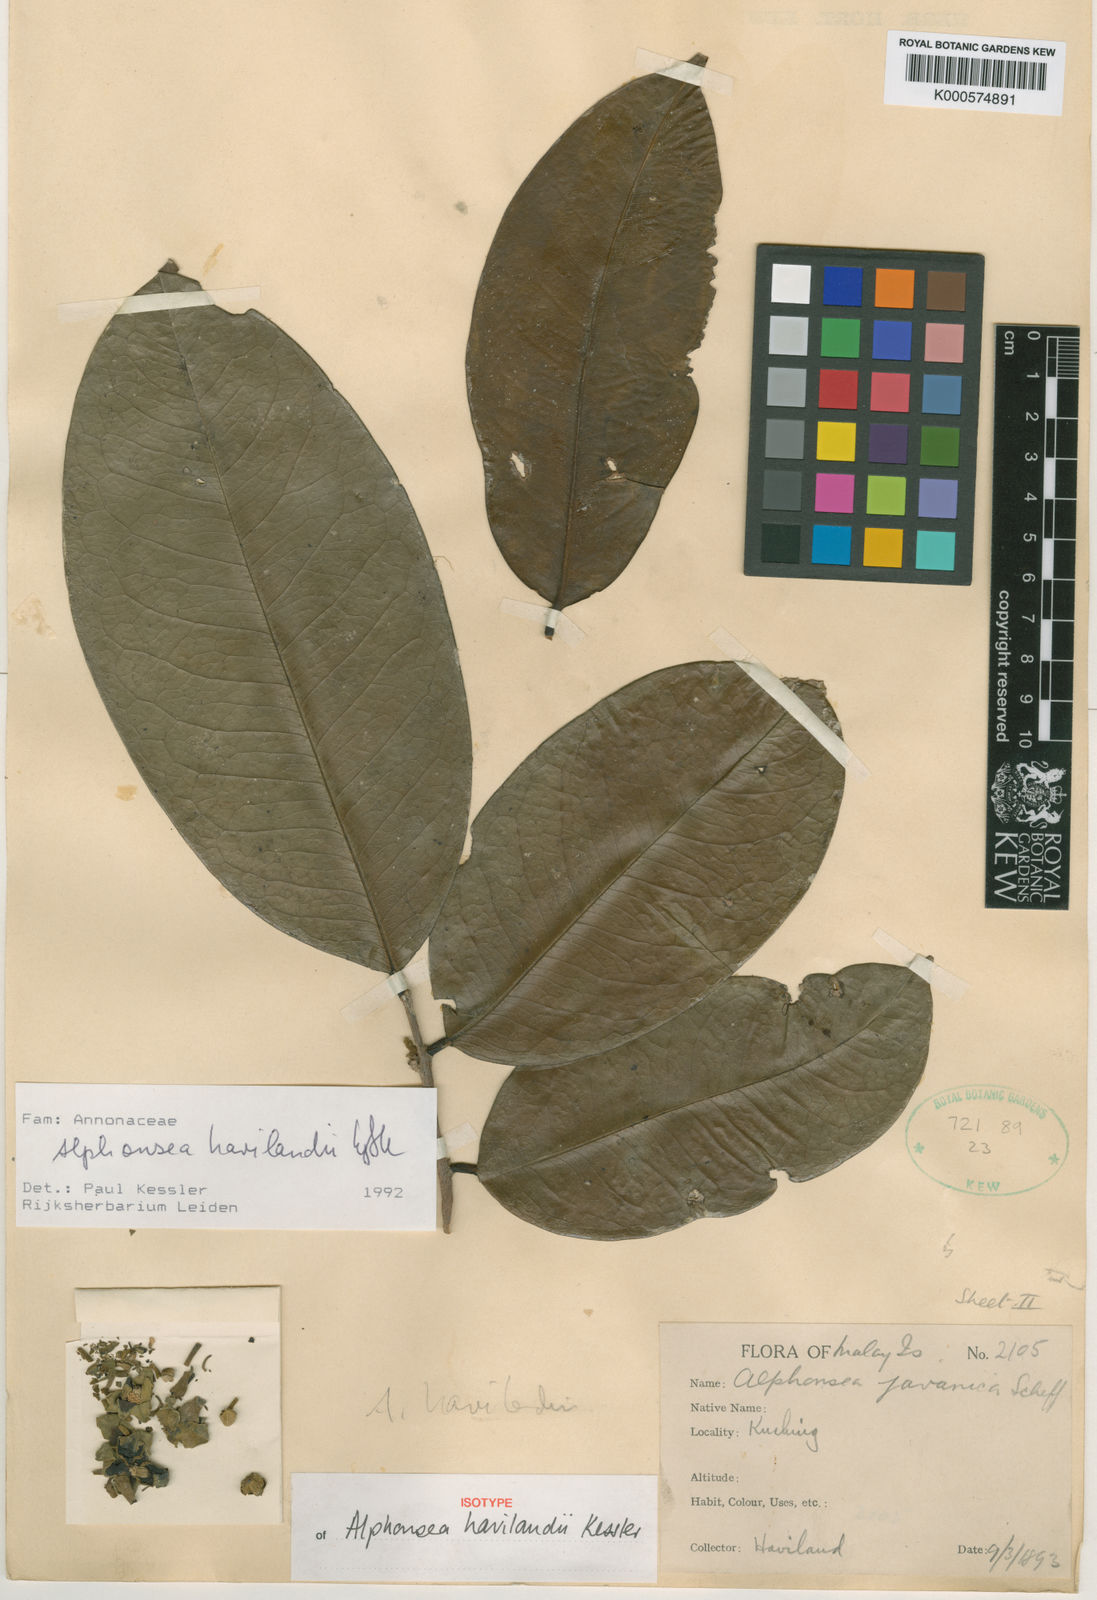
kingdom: Plantae
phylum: Tracheophyta
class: Magnoliopsida
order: Magnoliales
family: Annonaceae
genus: Alphonsea
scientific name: Alphonsea havilandii
